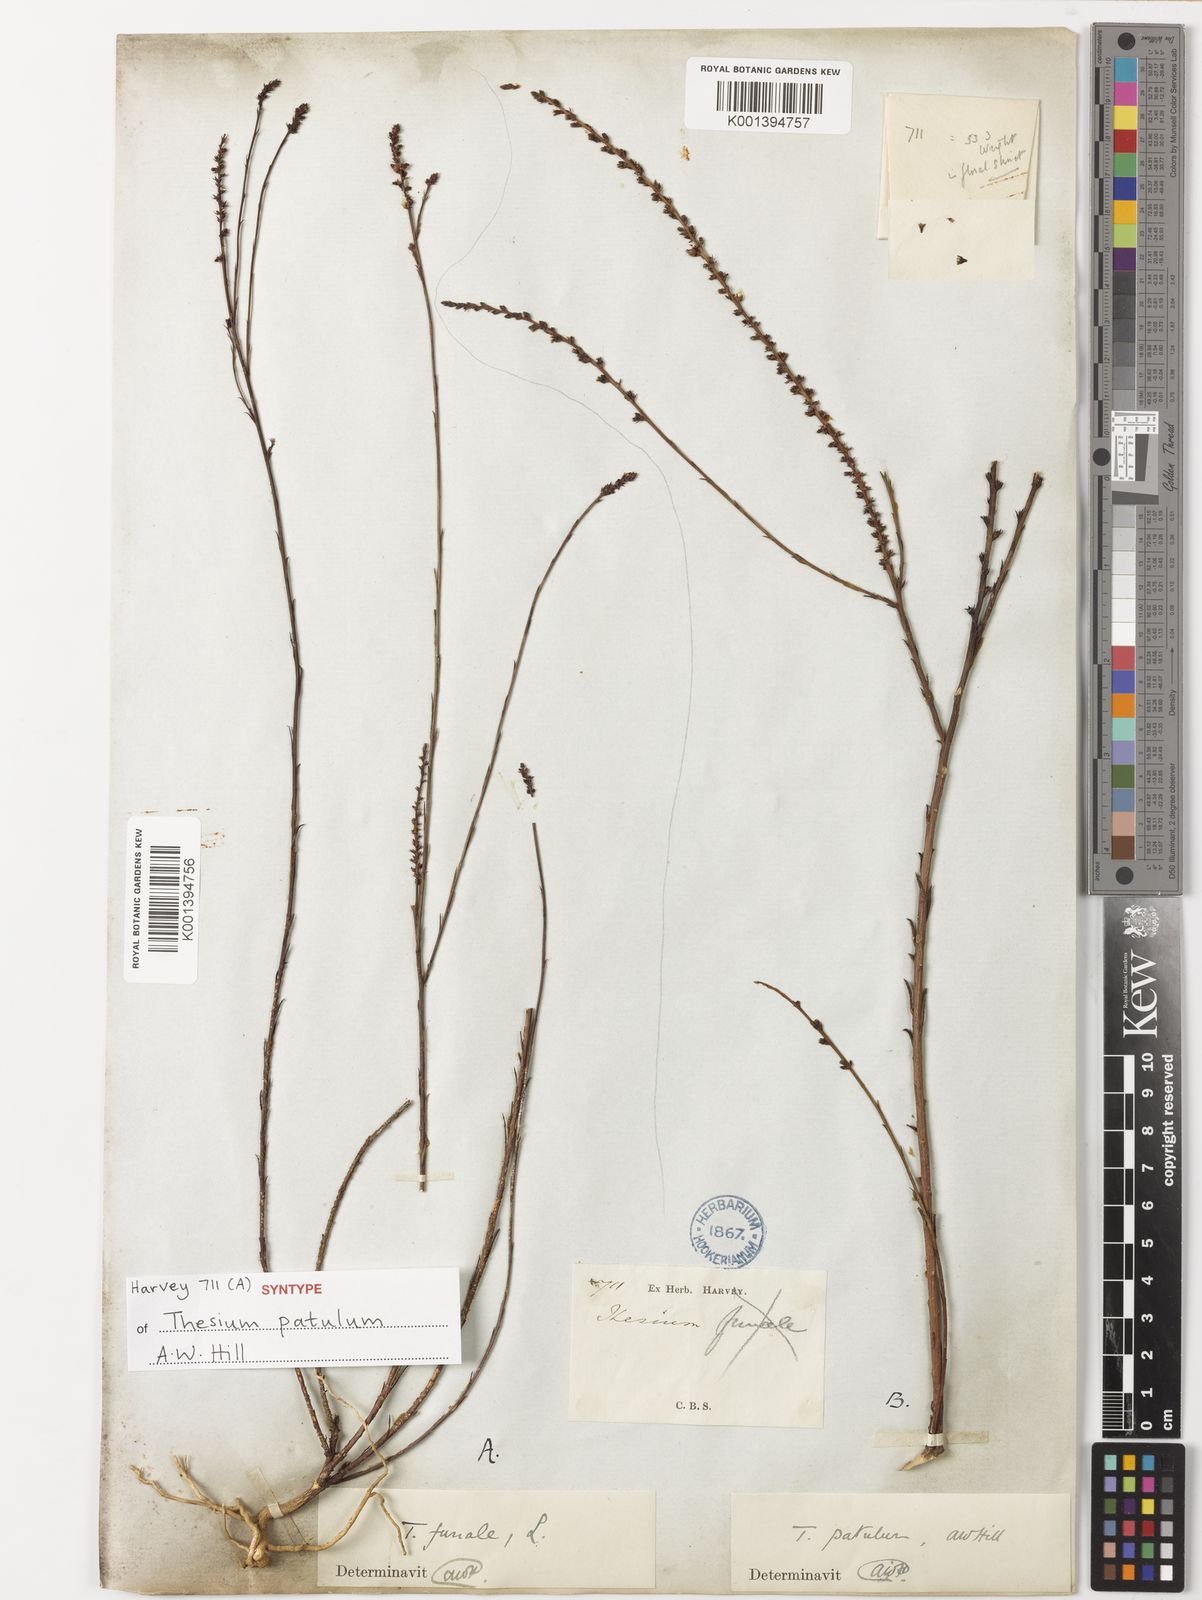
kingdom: Plantae
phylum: Tracheophyta
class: Magnoliopsida
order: Santalales
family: Thesiaceae
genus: Thesium
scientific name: Thesium patulum
